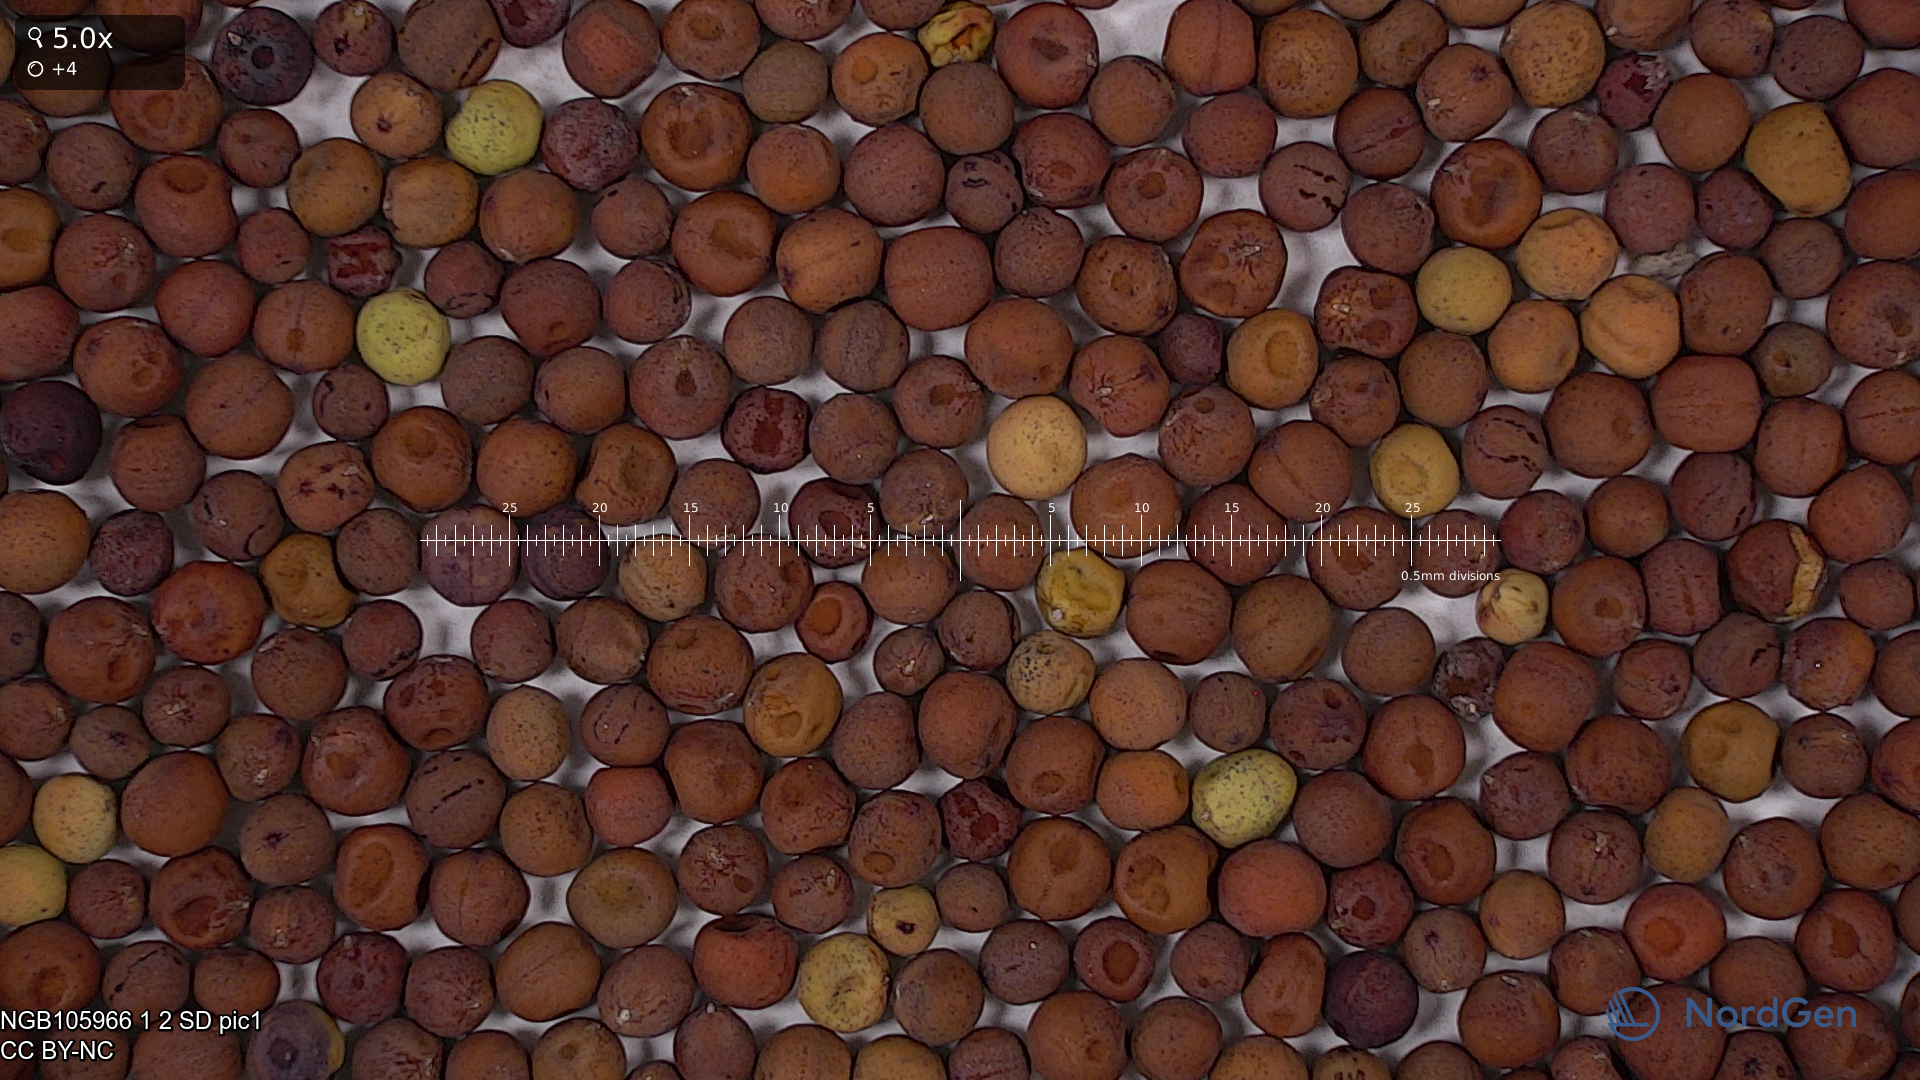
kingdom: Plantae
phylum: Tracheophyta
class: Magnoliopsida
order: Fabales
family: Fabaceae
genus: Lathyrus
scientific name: Lathyrus oleraceus
